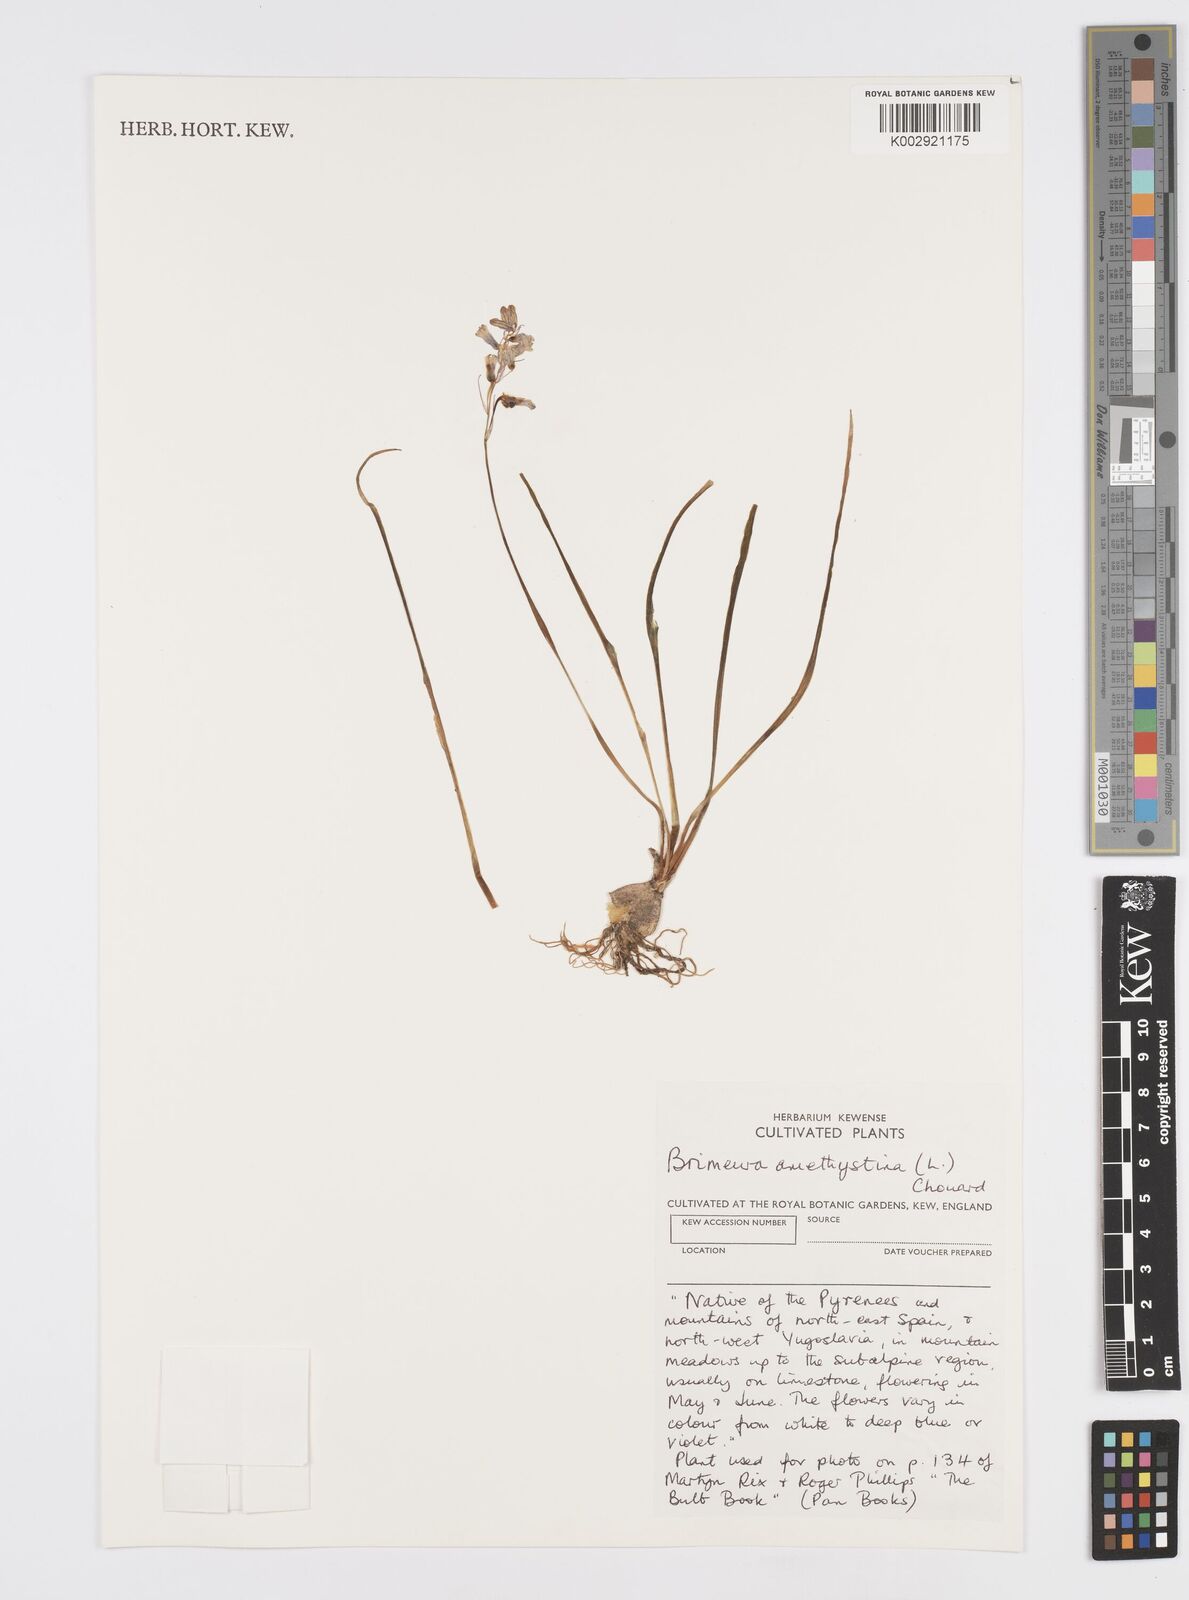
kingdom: Plantae
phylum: Tracheophyta
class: Liliopsida
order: Asparagales
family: Asparagaceae
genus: Brimeura
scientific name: Brimeura
